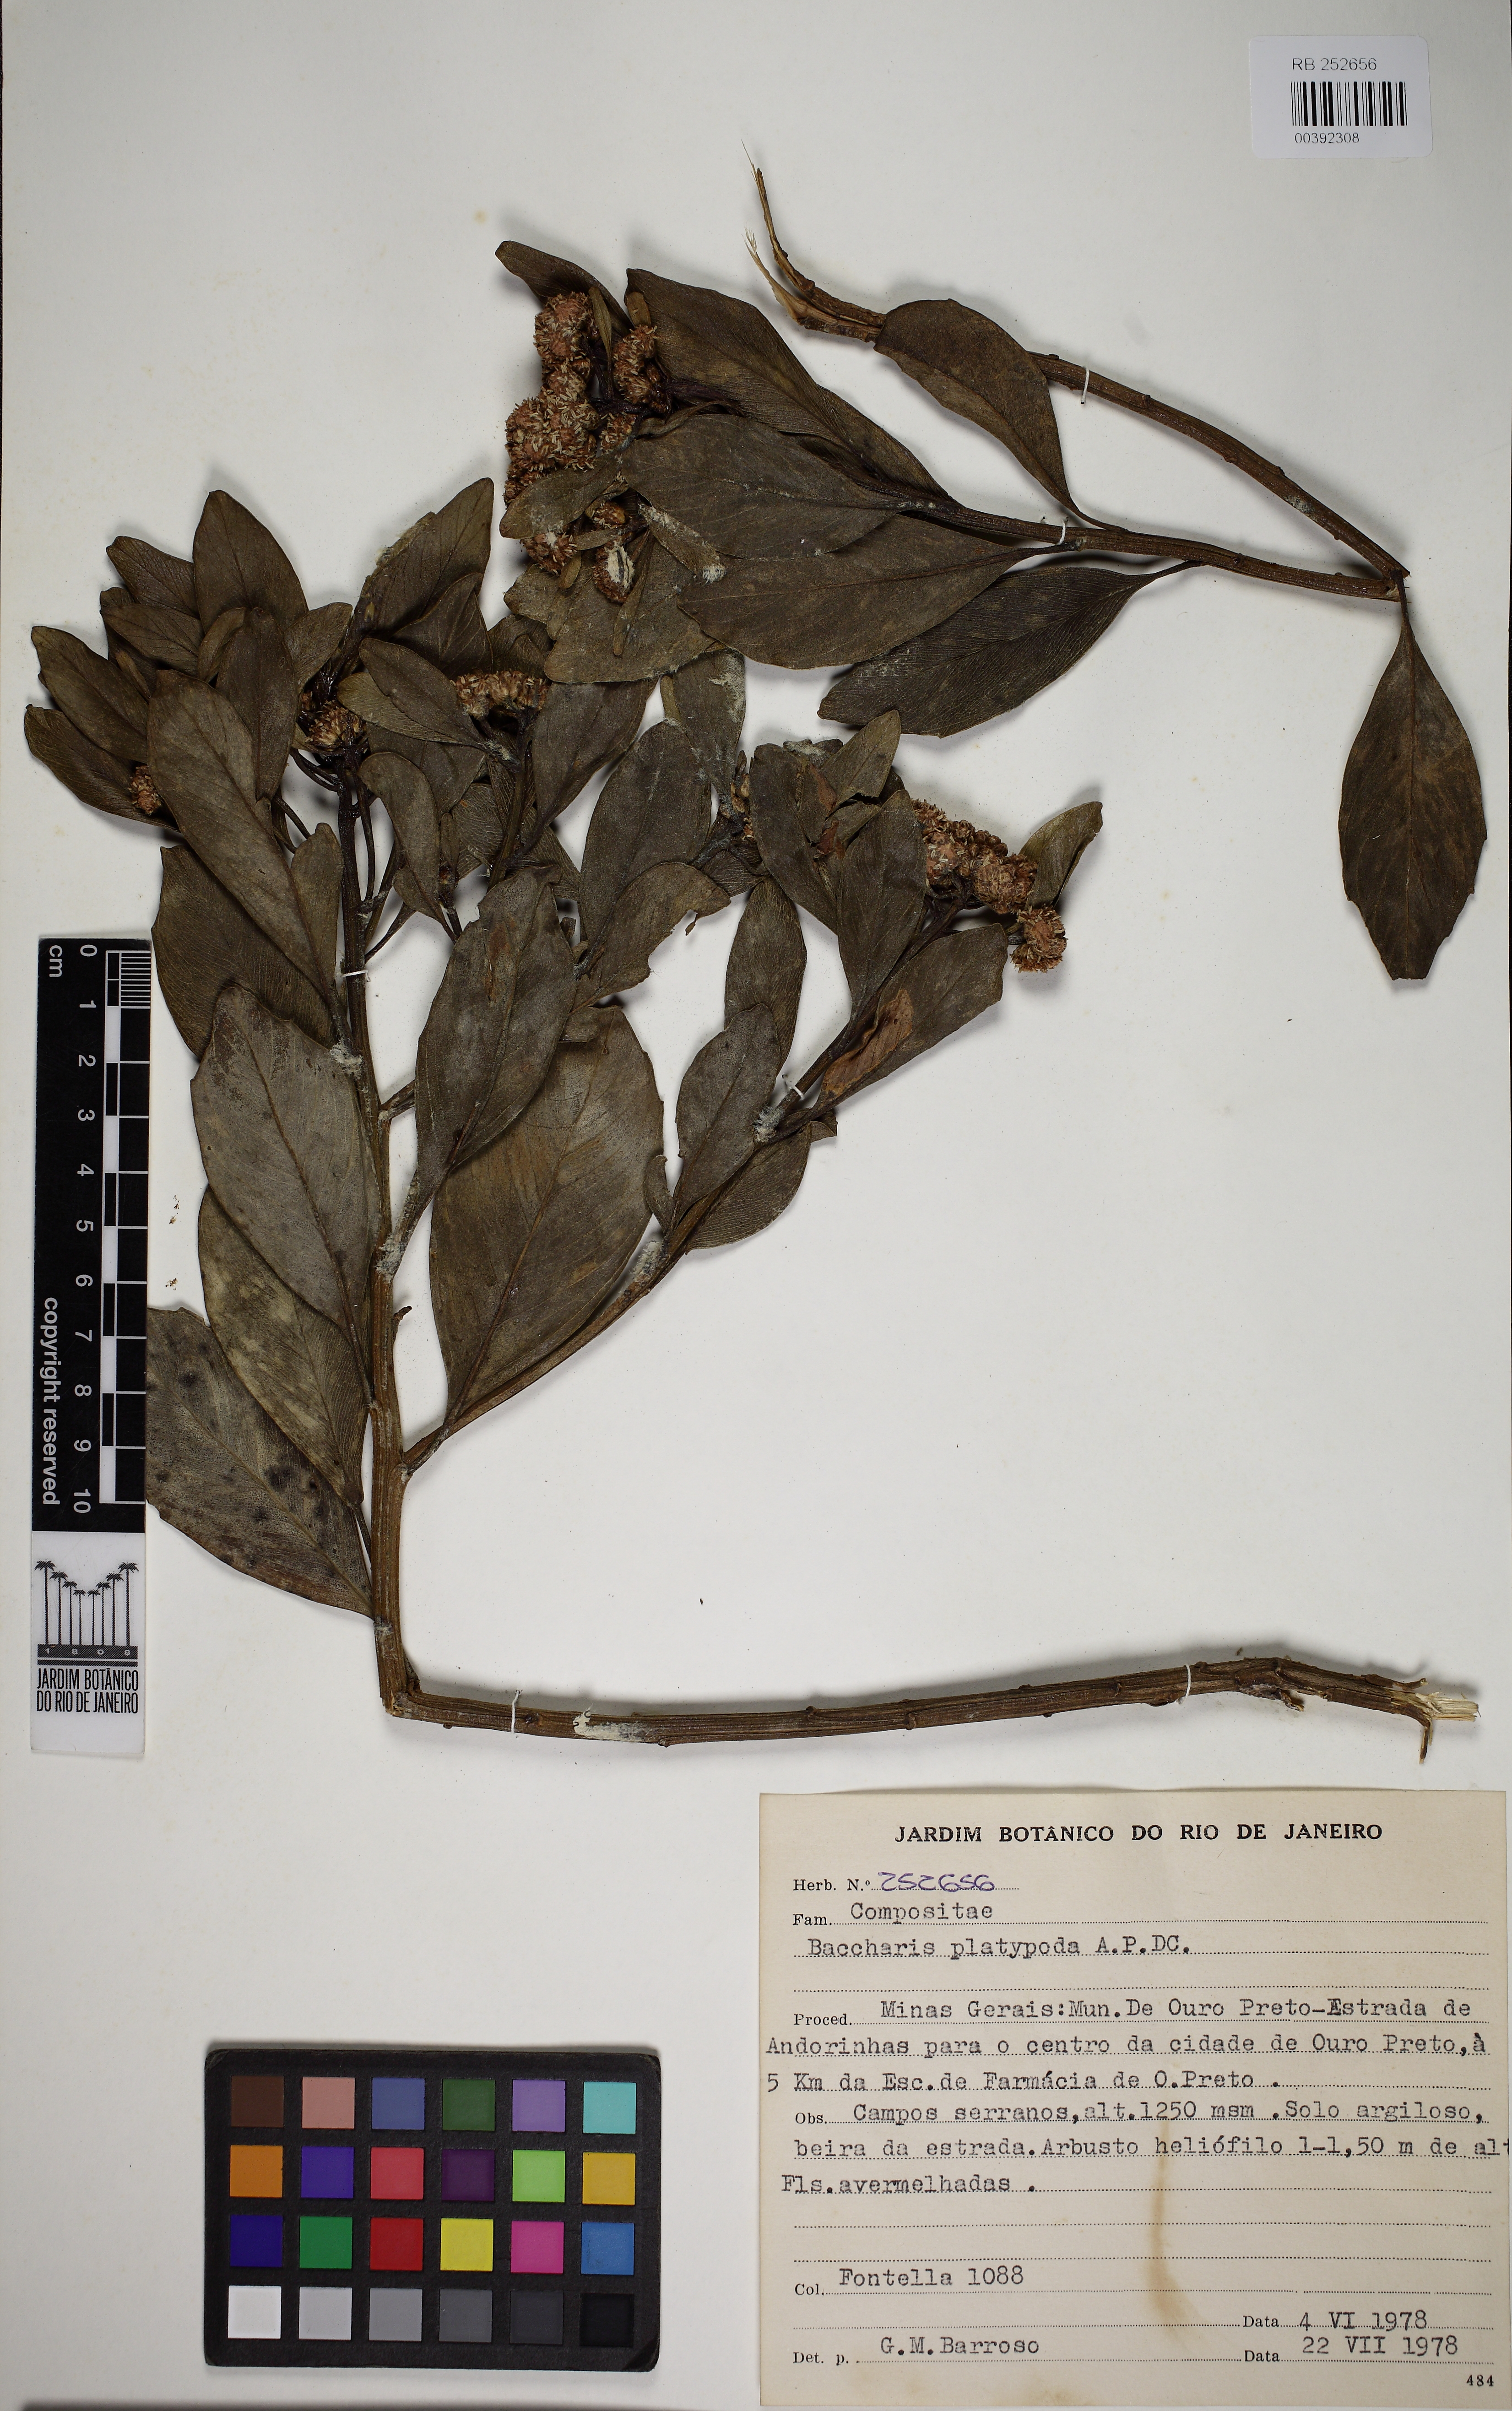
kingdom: Plantae
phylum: Tracheophyta
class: Magnoliopsida
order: Asterales
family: Asteraceae
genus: Baccharis
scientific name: Baccharis platypoda
